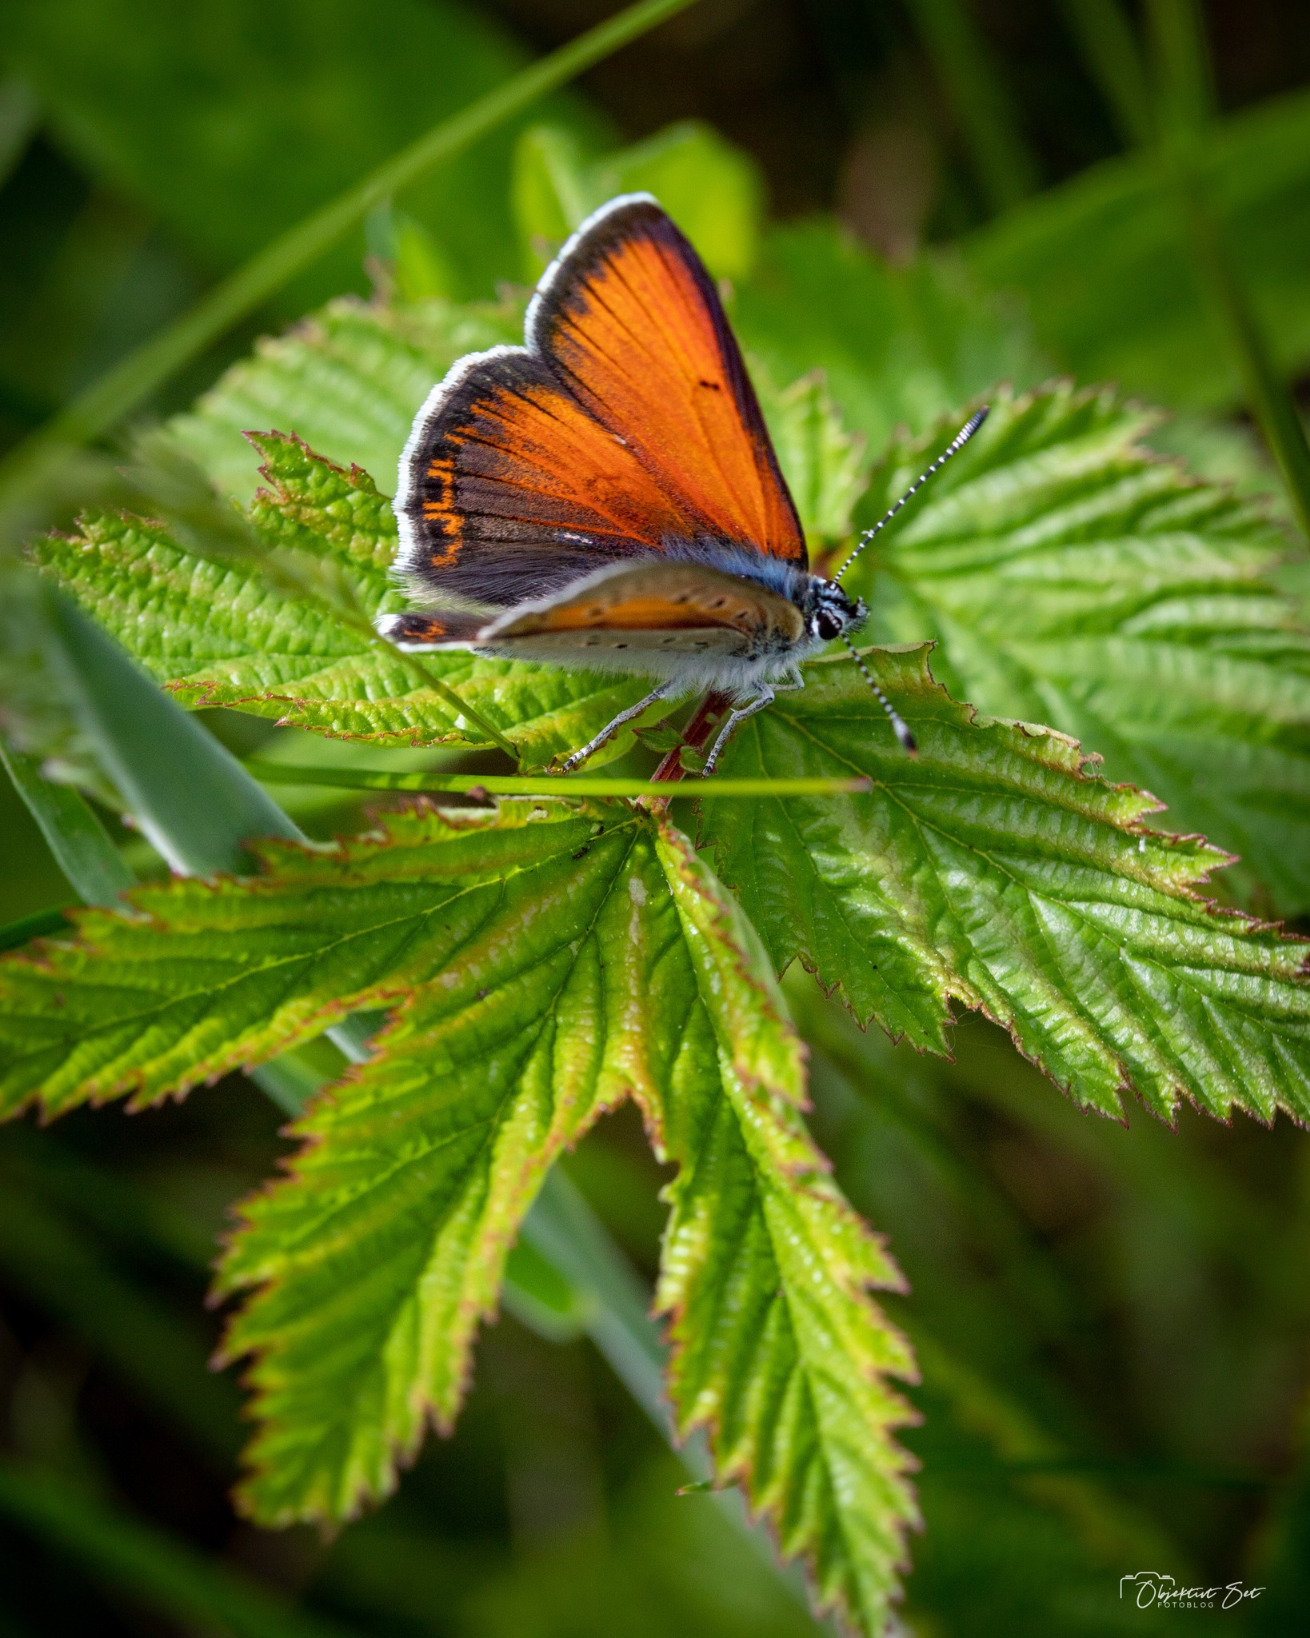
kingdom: Animalia
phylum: Arthropoda
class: Insecta
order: Lepidoptera
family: Lycaenidae
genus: Palaeochrysophanus
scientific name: Palaeochrysophanus hippothoe
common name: Violetrandet ildfugl
